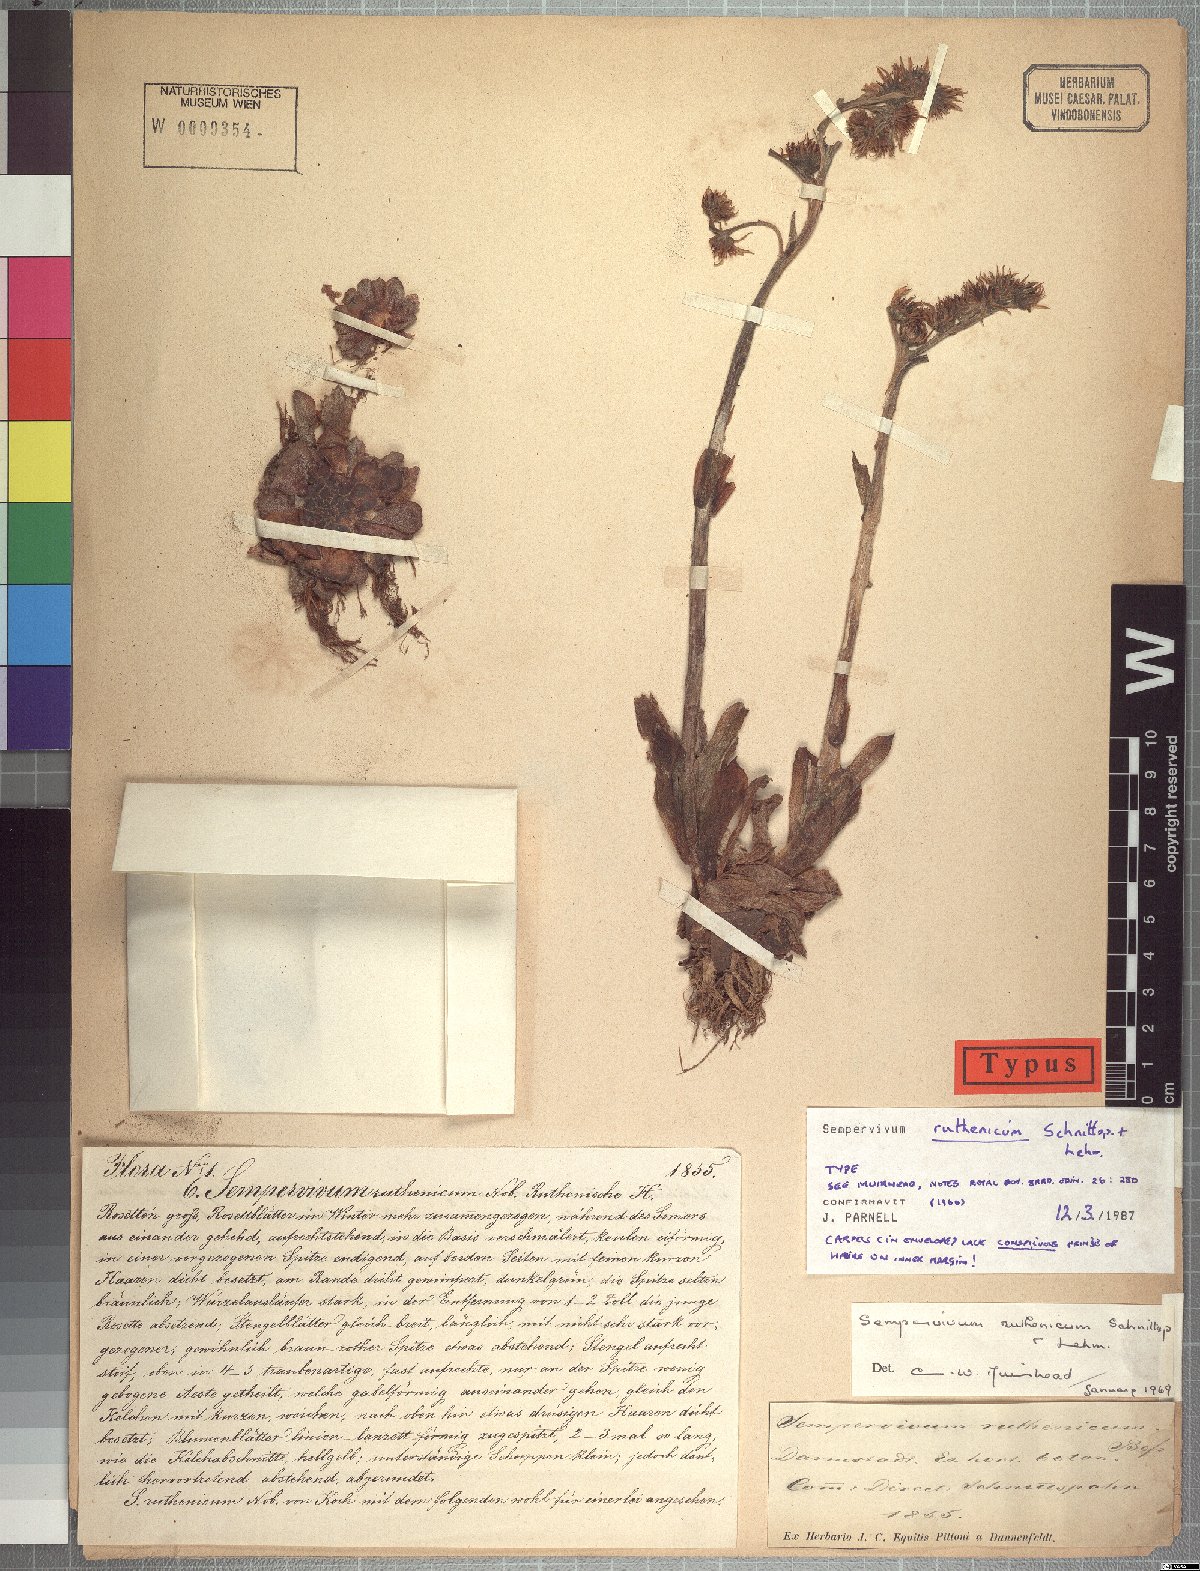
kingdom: Plantae
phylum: Tracheophyta
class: Magnoliopsida
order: Saxifragales
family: Crassulaceae
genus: Sempervivum
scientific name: Sempervivum ruthenicum
